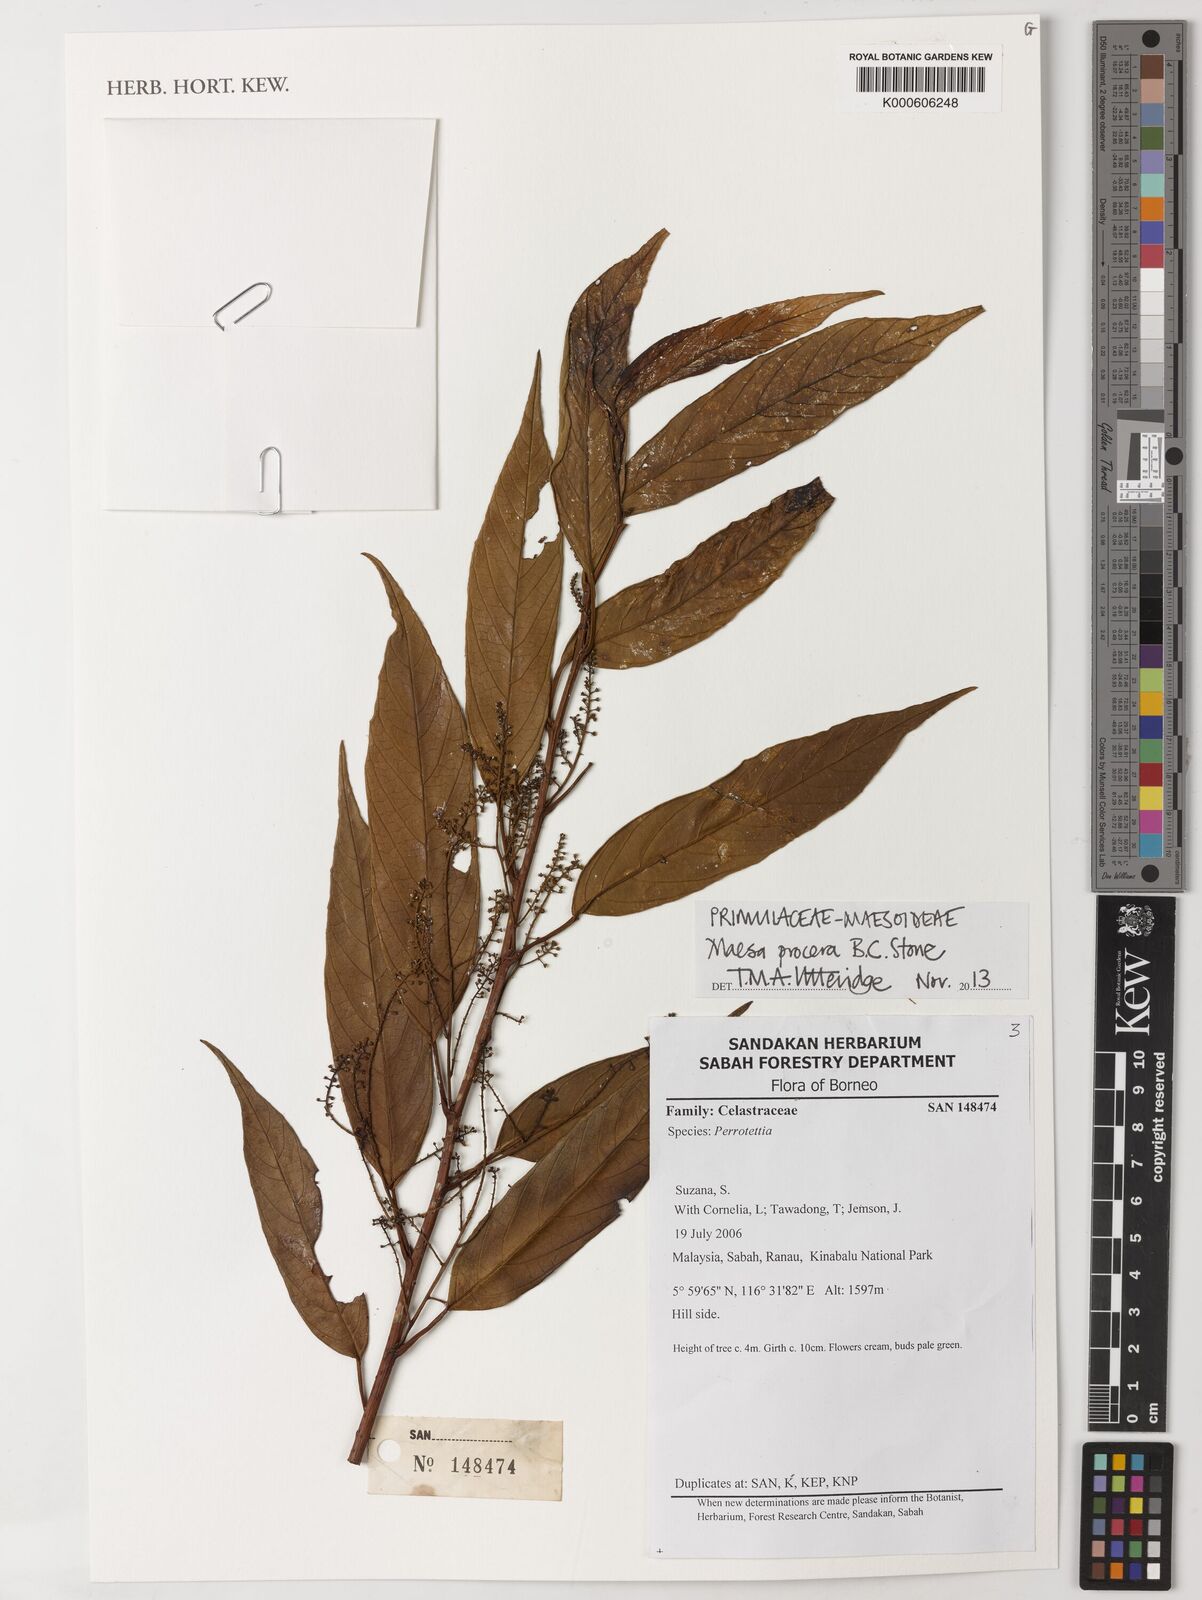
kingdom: Plantae
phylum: Tracheophyta
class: Magnoliopsida
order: Ericales
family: Primulaceae
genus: Maesa
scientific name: Maesa procera
